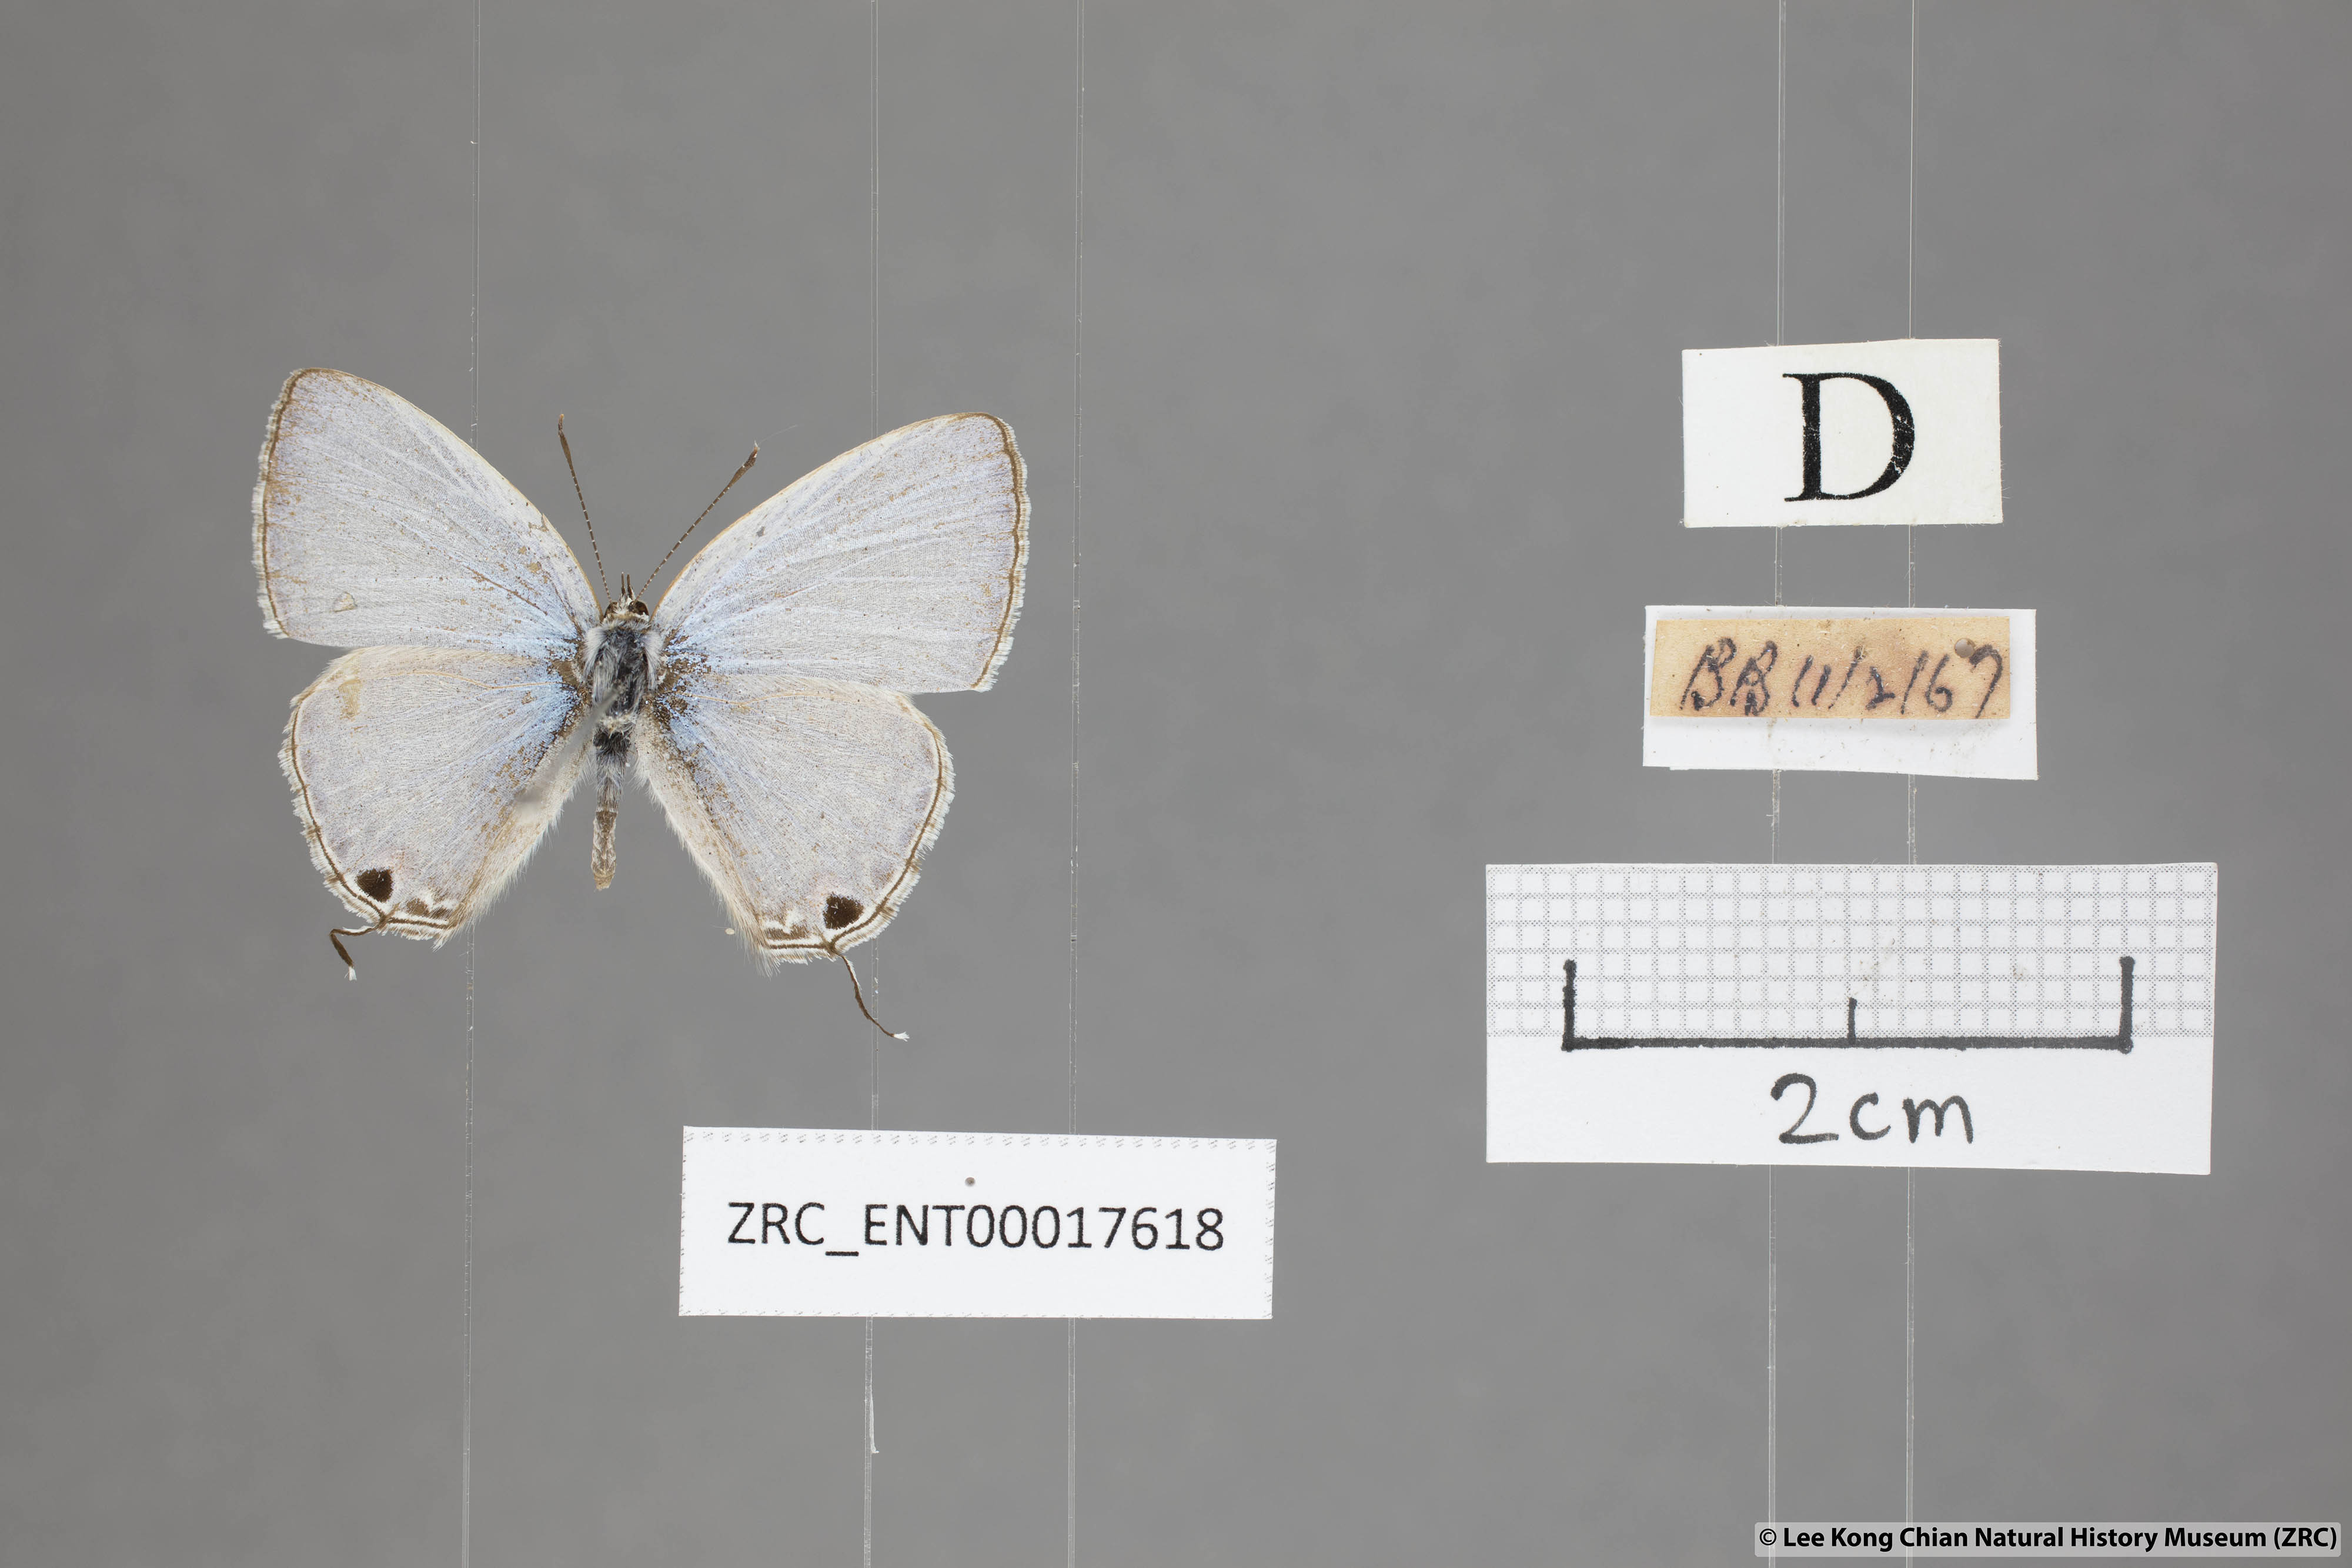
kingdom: Animalia
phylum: Arthropoda
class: Insecta
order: Lepidoptera
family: Lycaenidae
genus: Catochrysops
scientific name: Catochrysops panormus
